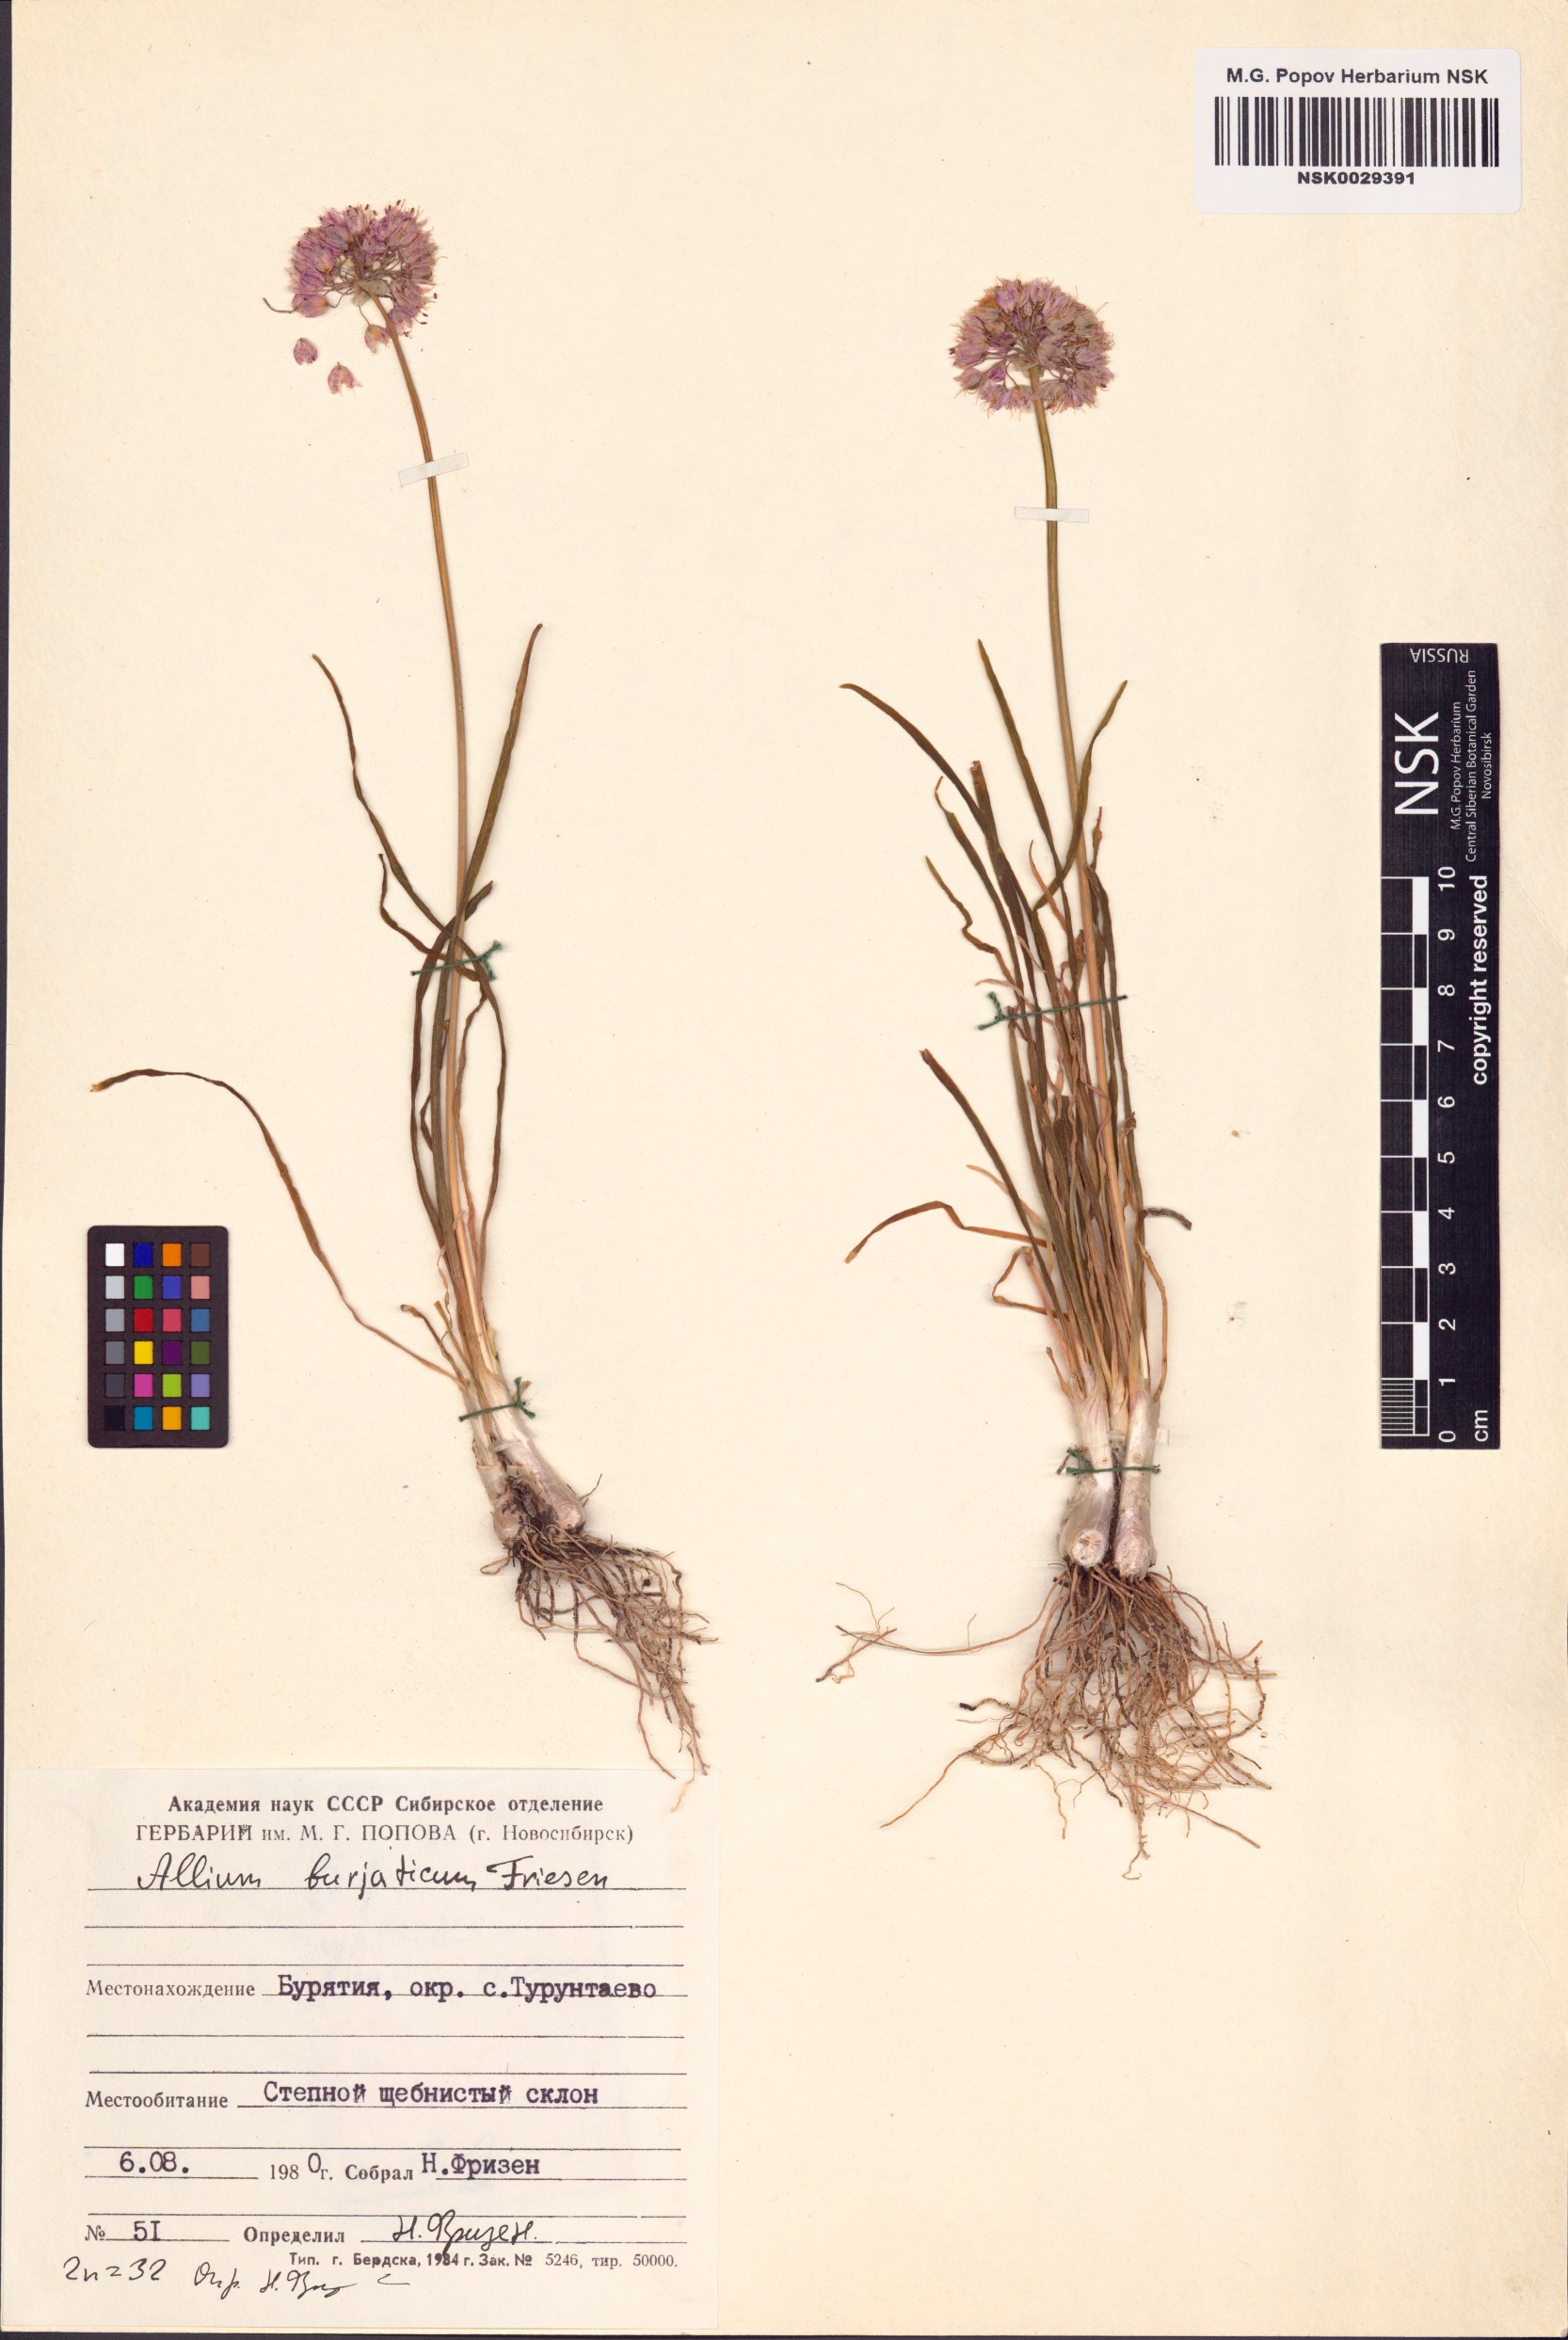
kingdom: Plantae
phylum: Tracheophyta
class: Liliopsida
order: Asparagales
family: Amaryllidaceae
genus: Allium
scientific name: Allium burjaticum
